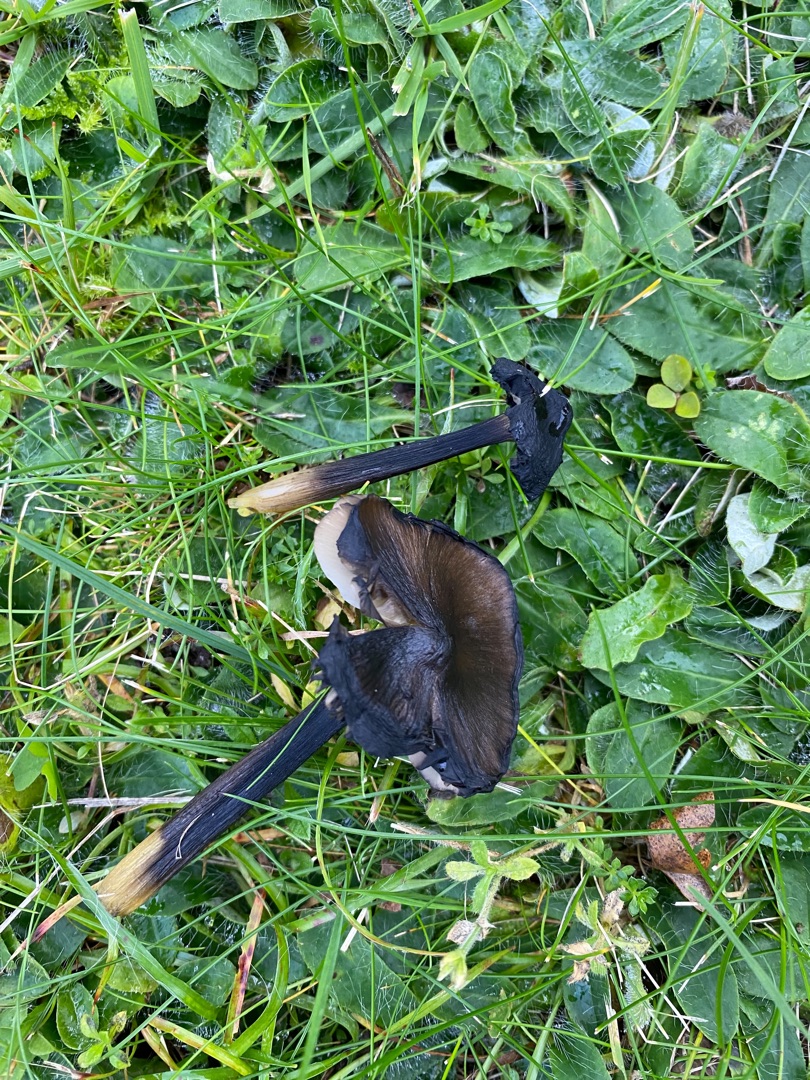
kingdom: Fungi
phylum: Basidiomycota
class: Agaricomycetes
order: Agaricales
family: Hygrophoraceae
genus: Hygrocybe
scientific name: Hygrocybe conica
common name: Kegle-vokshat
